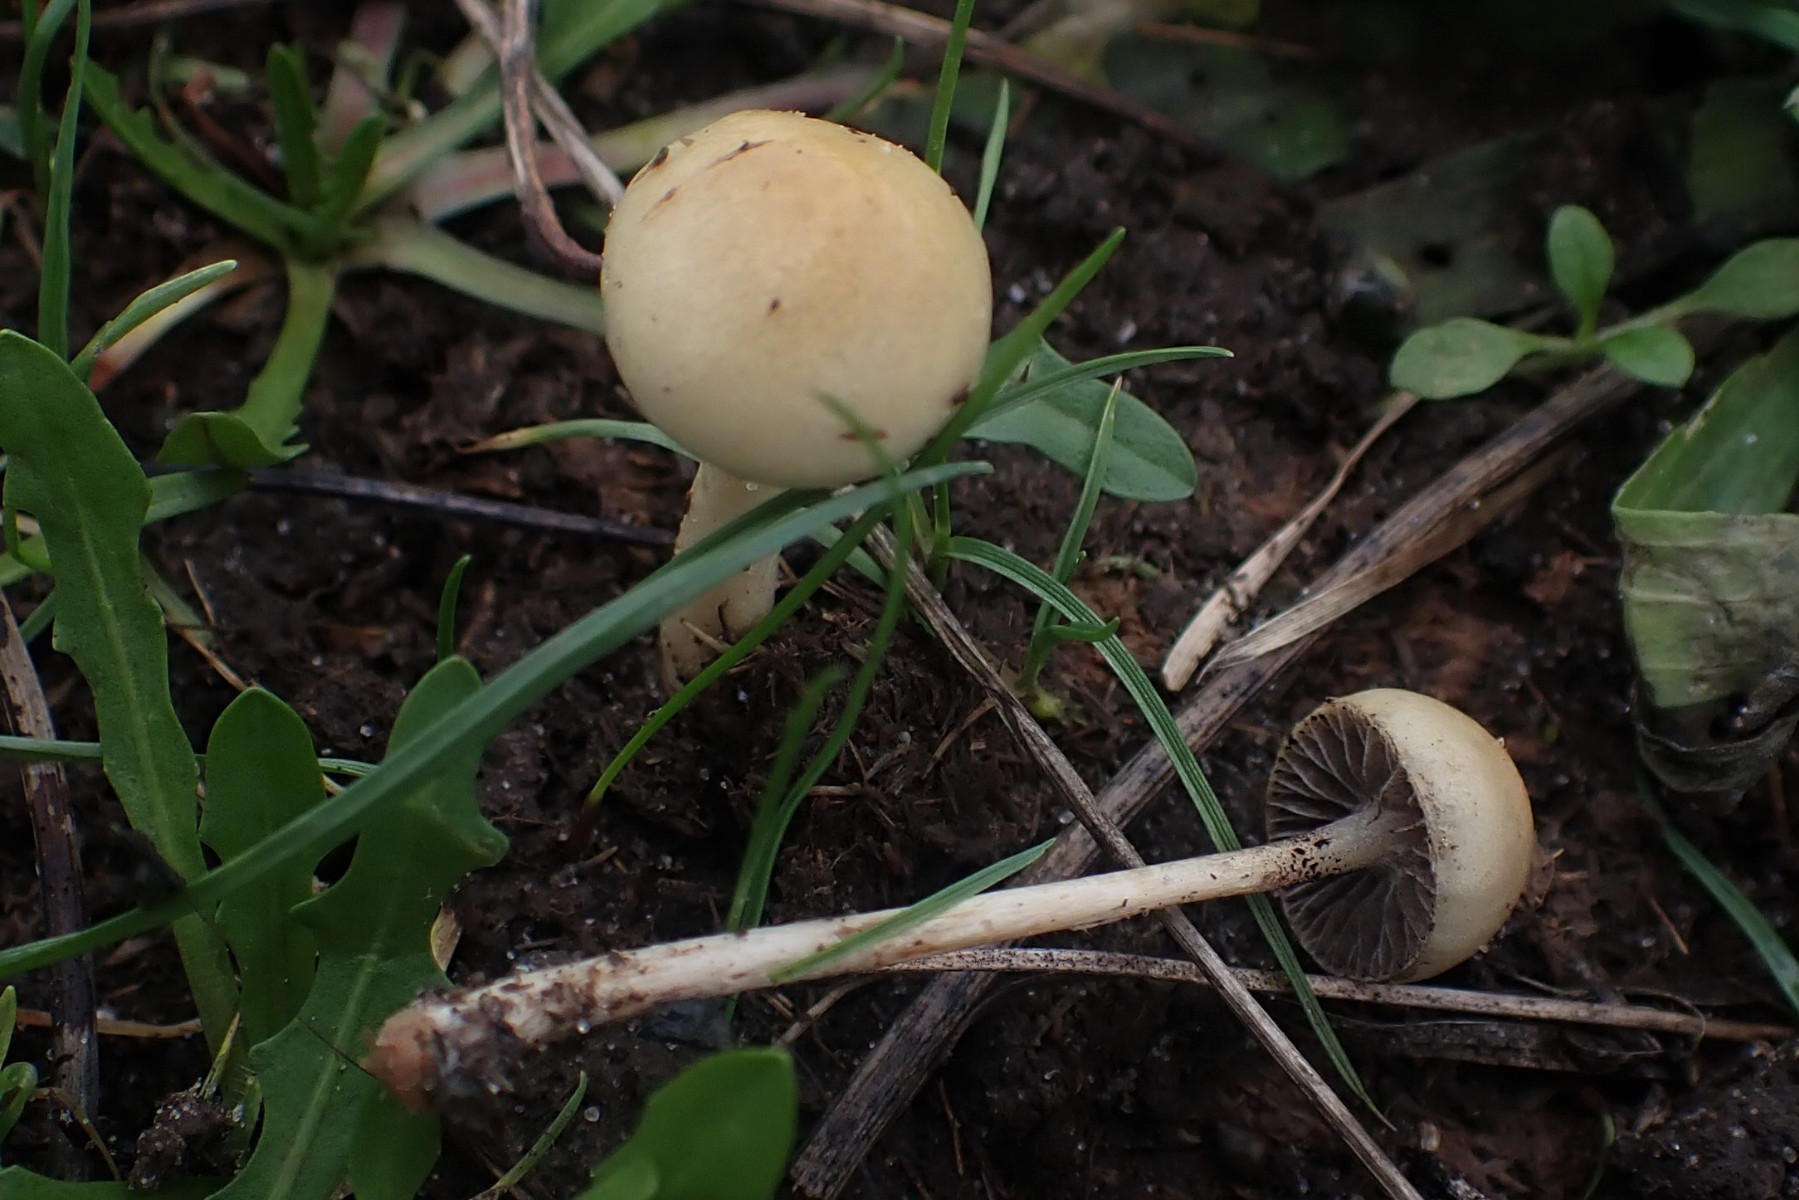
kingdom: Fungi
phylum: Basidiomycota
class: Agaricomycetes
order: Agaricales
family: Strophariaceae
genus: Protostropharia
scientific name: Protostropharia semiglobata
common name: halvkugleformet bredblad
